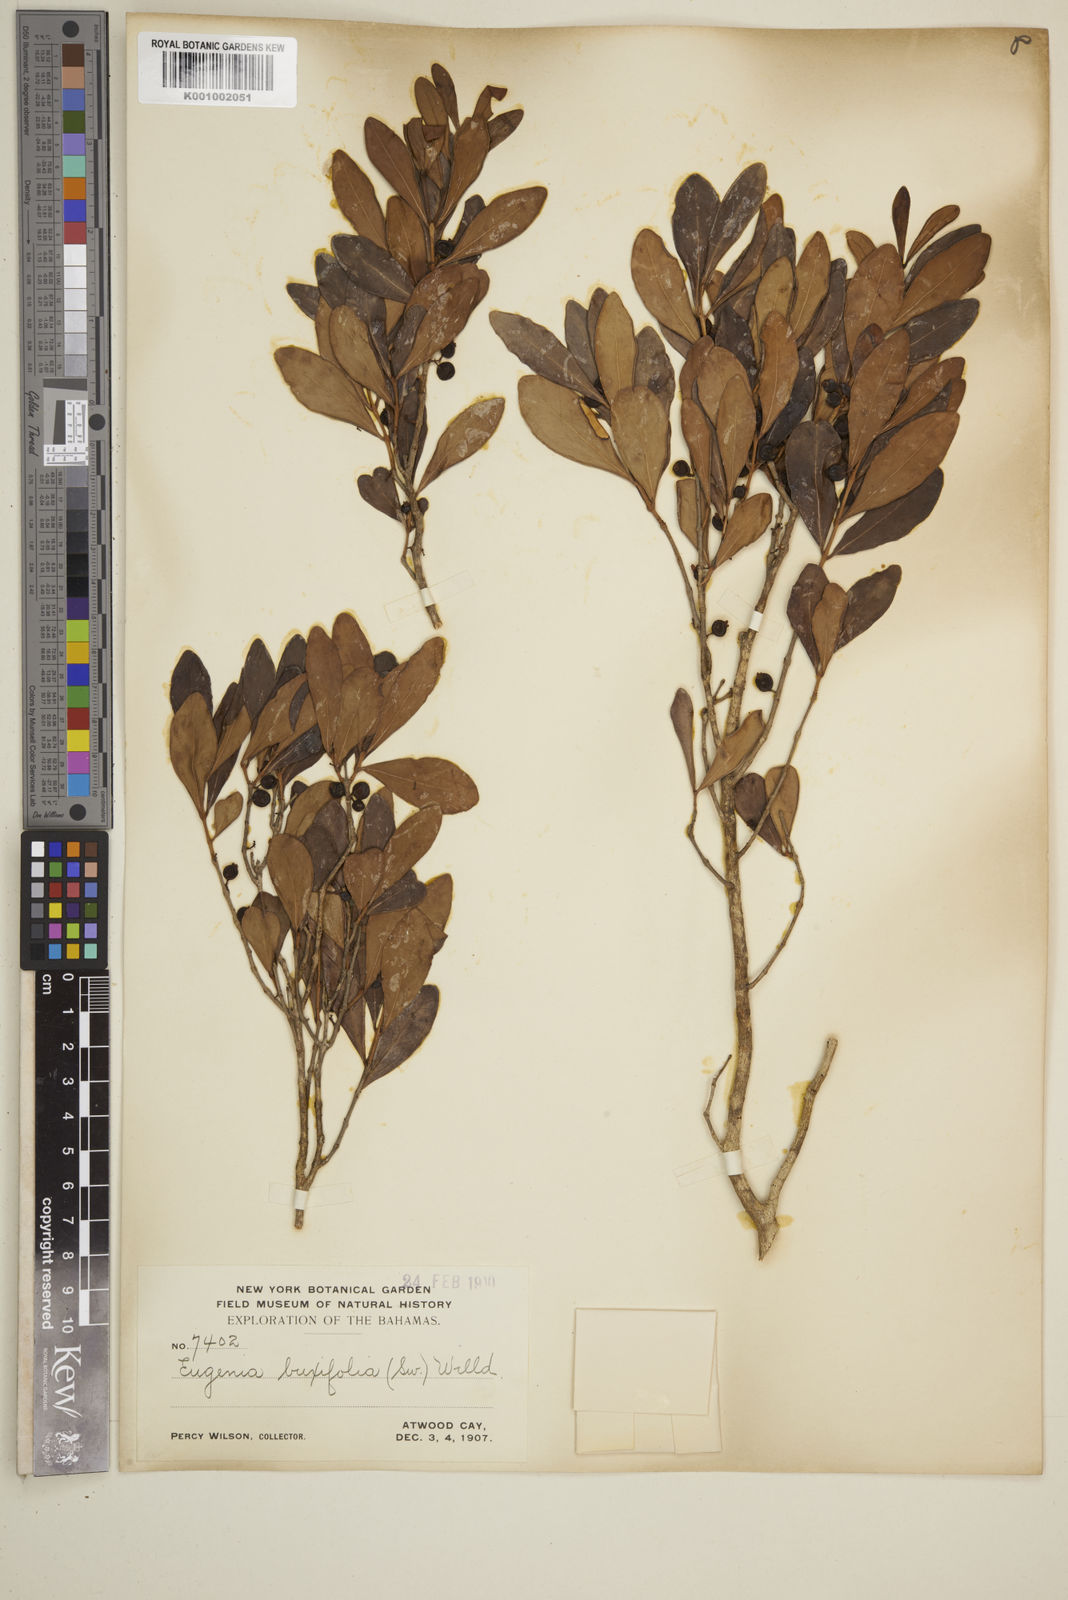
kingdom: Plantae
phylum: Tracheophyta
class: Magnoliopsida
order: Myrtales
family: Myrtaceae
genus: Eugenia
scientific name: Eugenia buxifolia
